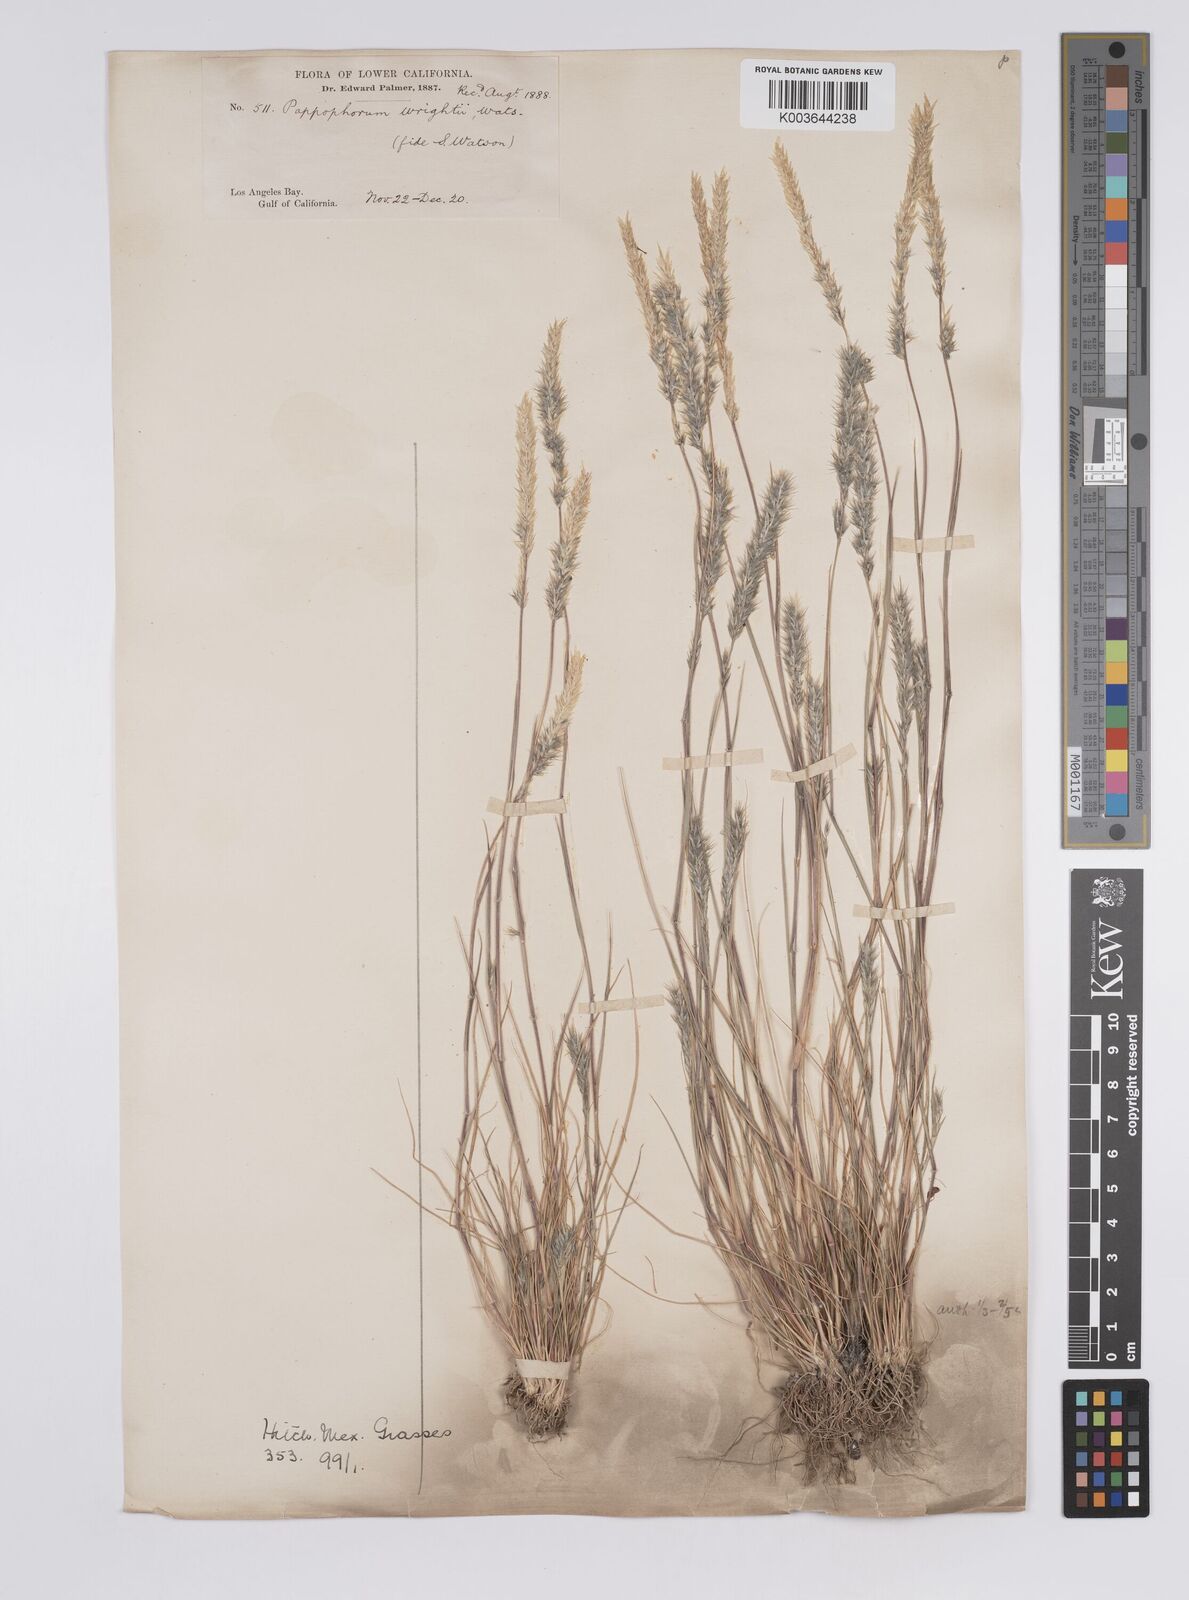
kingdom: Plantae
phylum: Tracheophyta
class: Liliopsida
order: Poales
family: Poaceae
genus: Enneapogon
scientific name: Enneapogon desvauxii
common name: Feather pappus grass
